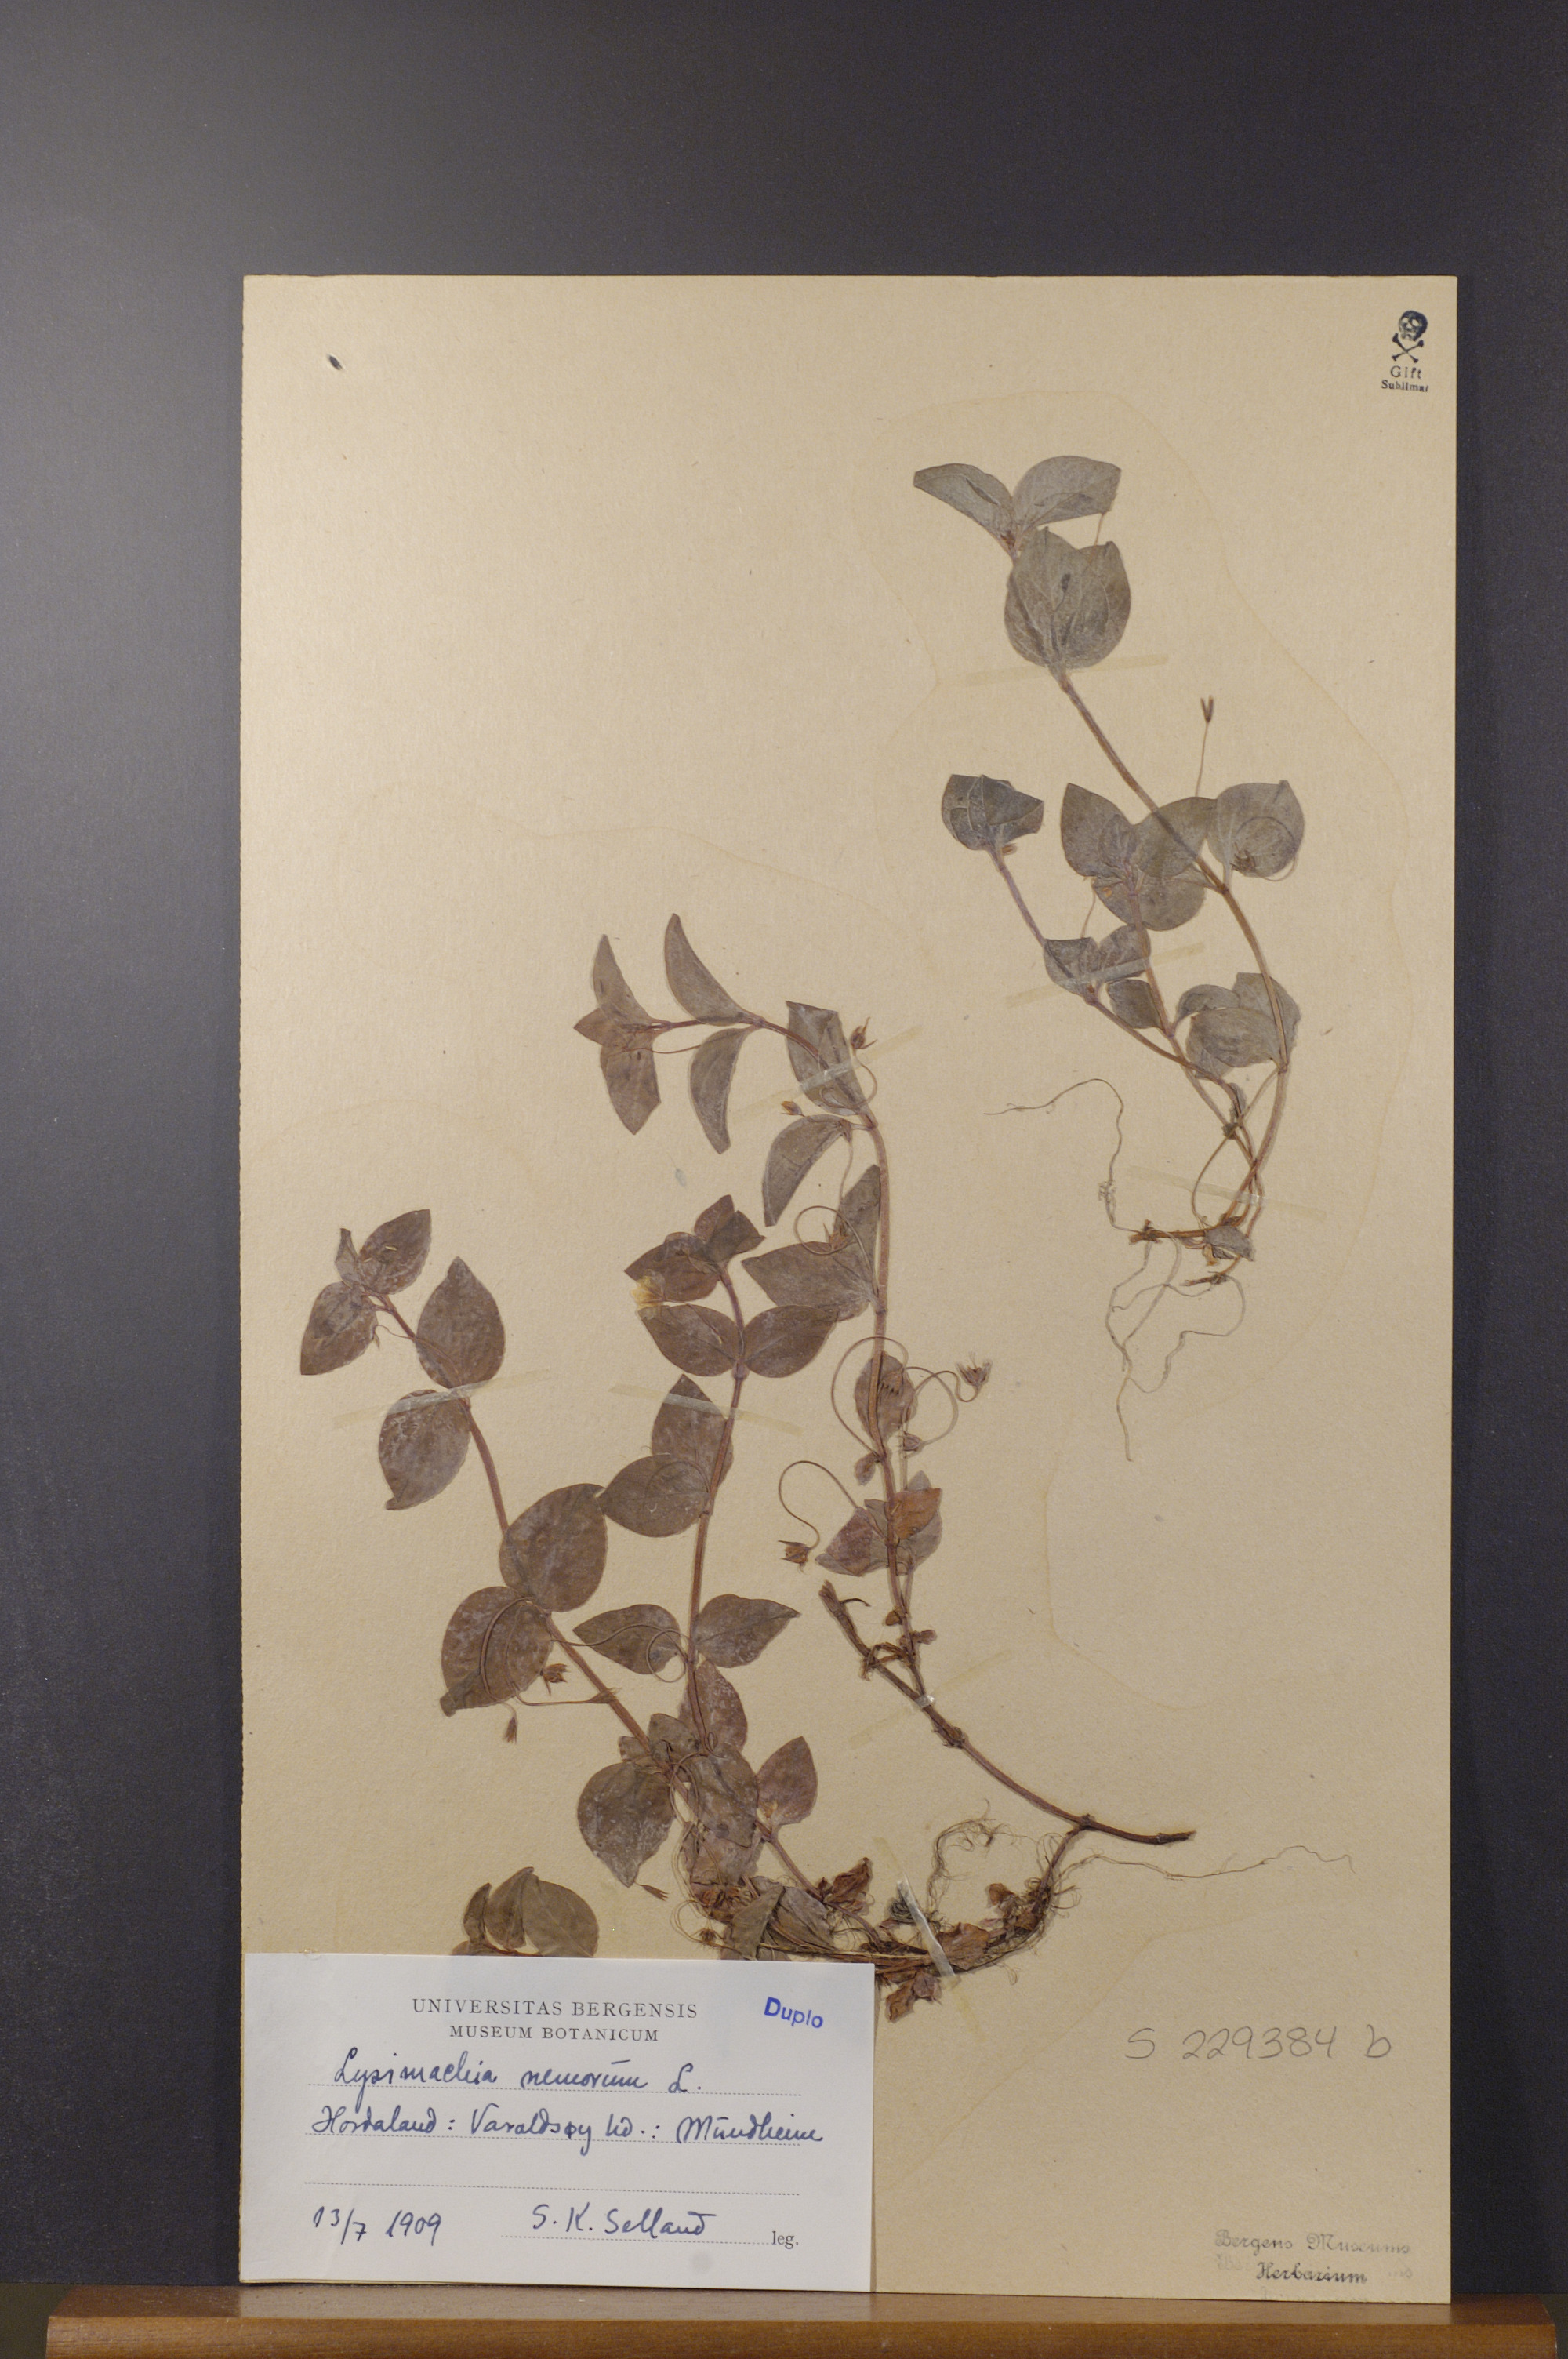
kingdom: Plantae
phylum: Tracheophyta
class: Magnoliopsida
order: Ericales
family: Primulaceae
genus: Lysimachia
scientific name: Lysimachia nemorum
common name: Yellow pimpernel
